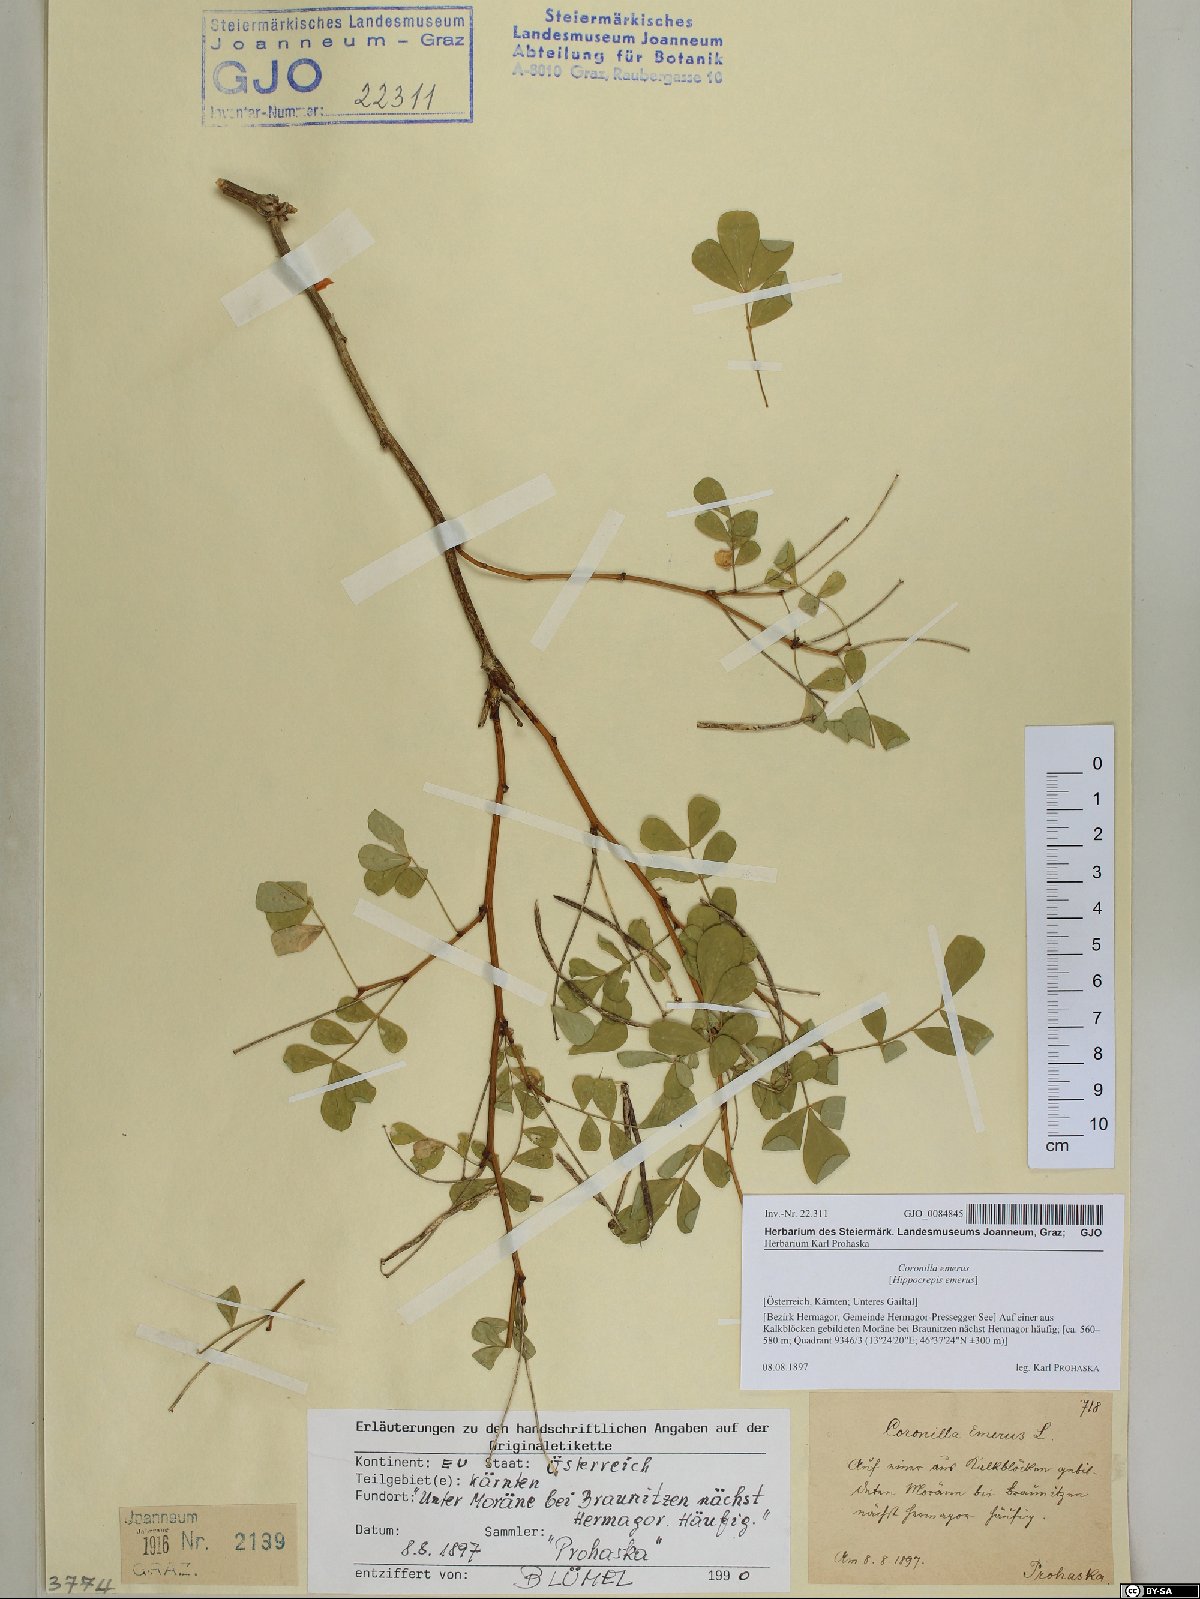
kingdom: Plantae
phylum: Tracheophyta
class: Magnoliopsida
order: Fabales
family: Fabaceae
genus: Hippocrepis
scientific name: Hippocrepis emerus
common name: Scorpion senna
